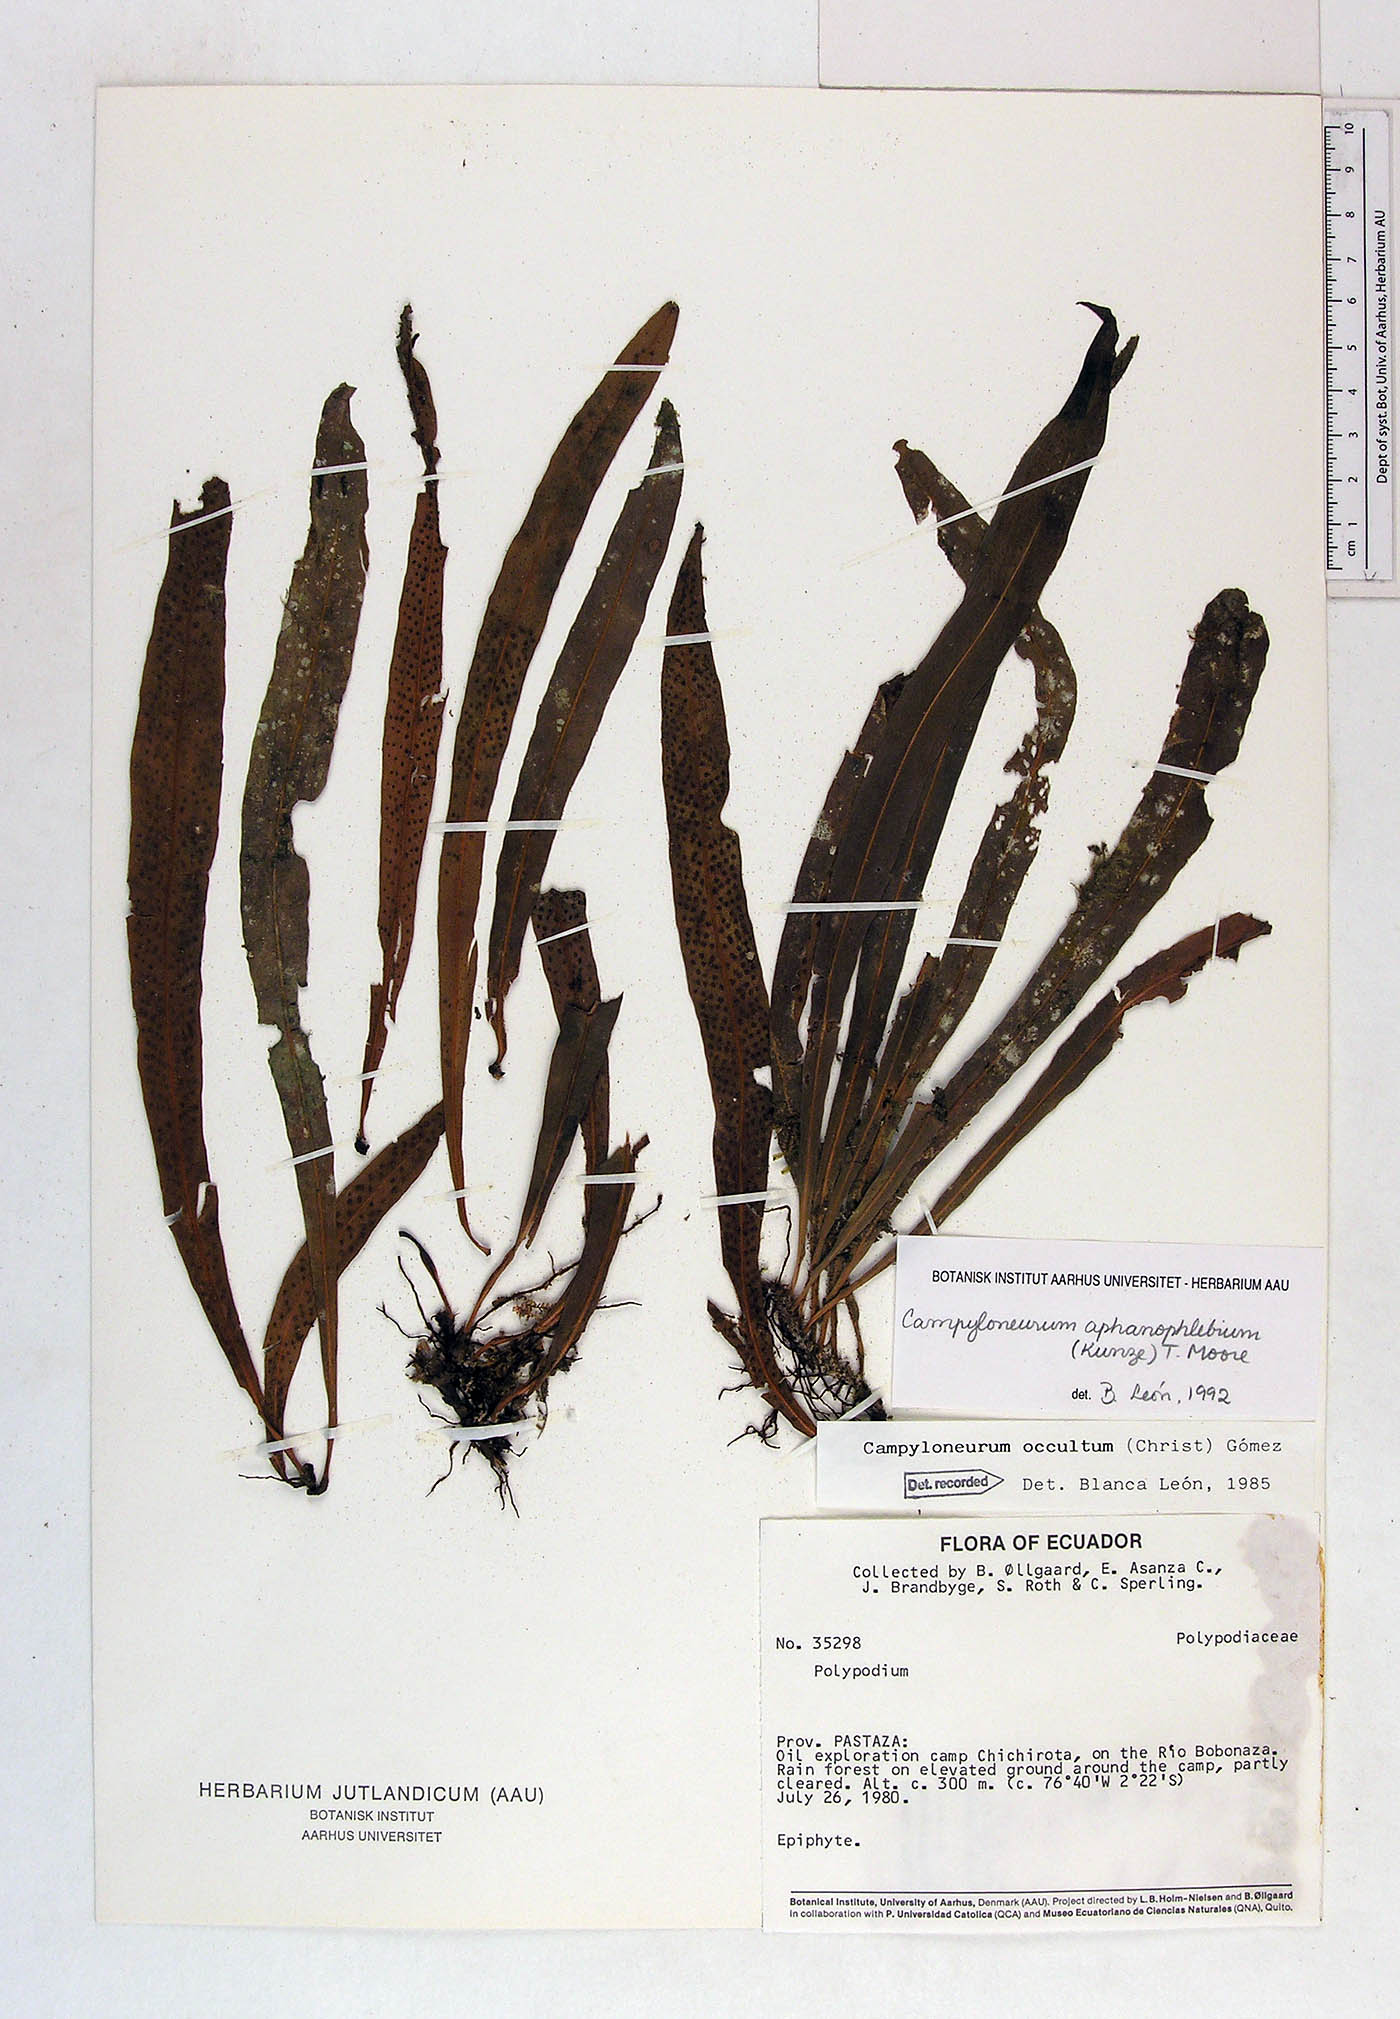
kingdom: Plantae
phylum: Tracheophyta
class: Polypodiopsida
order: Polypodiales
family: Polypodiaceae
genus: Campyloneurum
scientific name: Campyloneurum aphanophlebium
